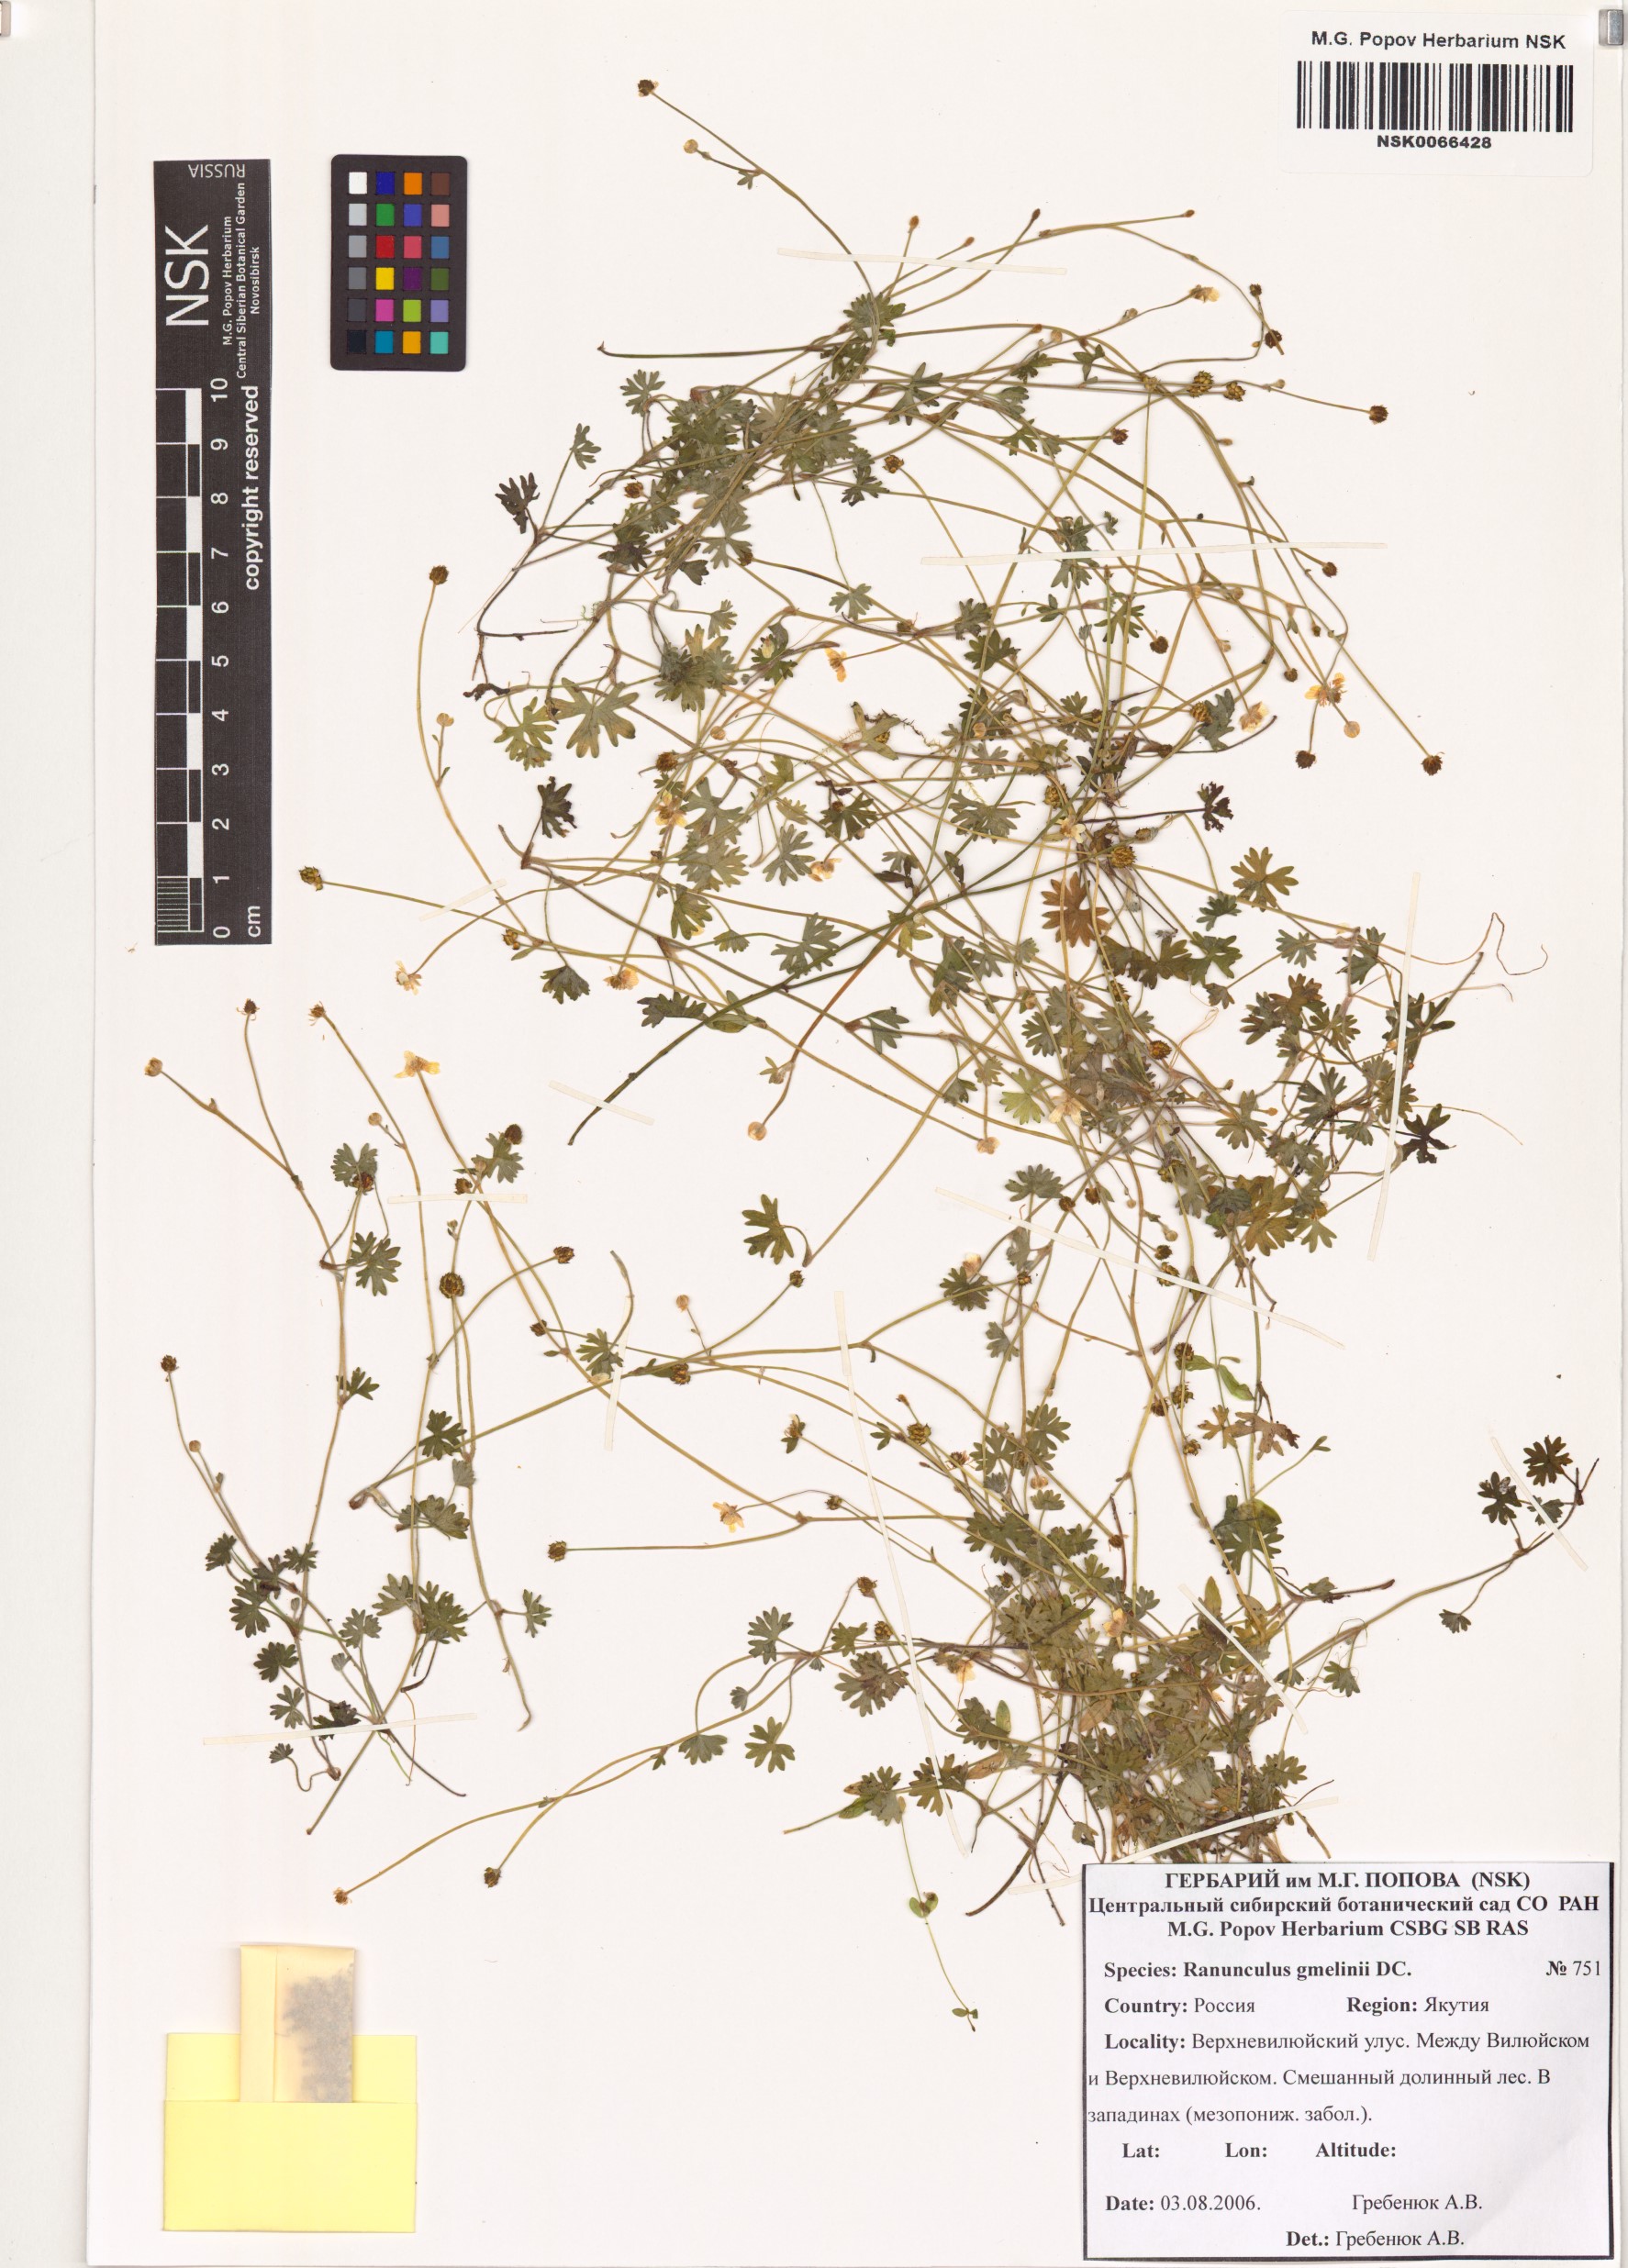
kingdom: Plantae
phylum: Tracheophyta
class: Magnoliopsida
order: Ranunculales
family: Ranunculaceae
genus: Ranunculus
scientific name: Ranunculus gmelinii
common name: Gmelin's buttercup
